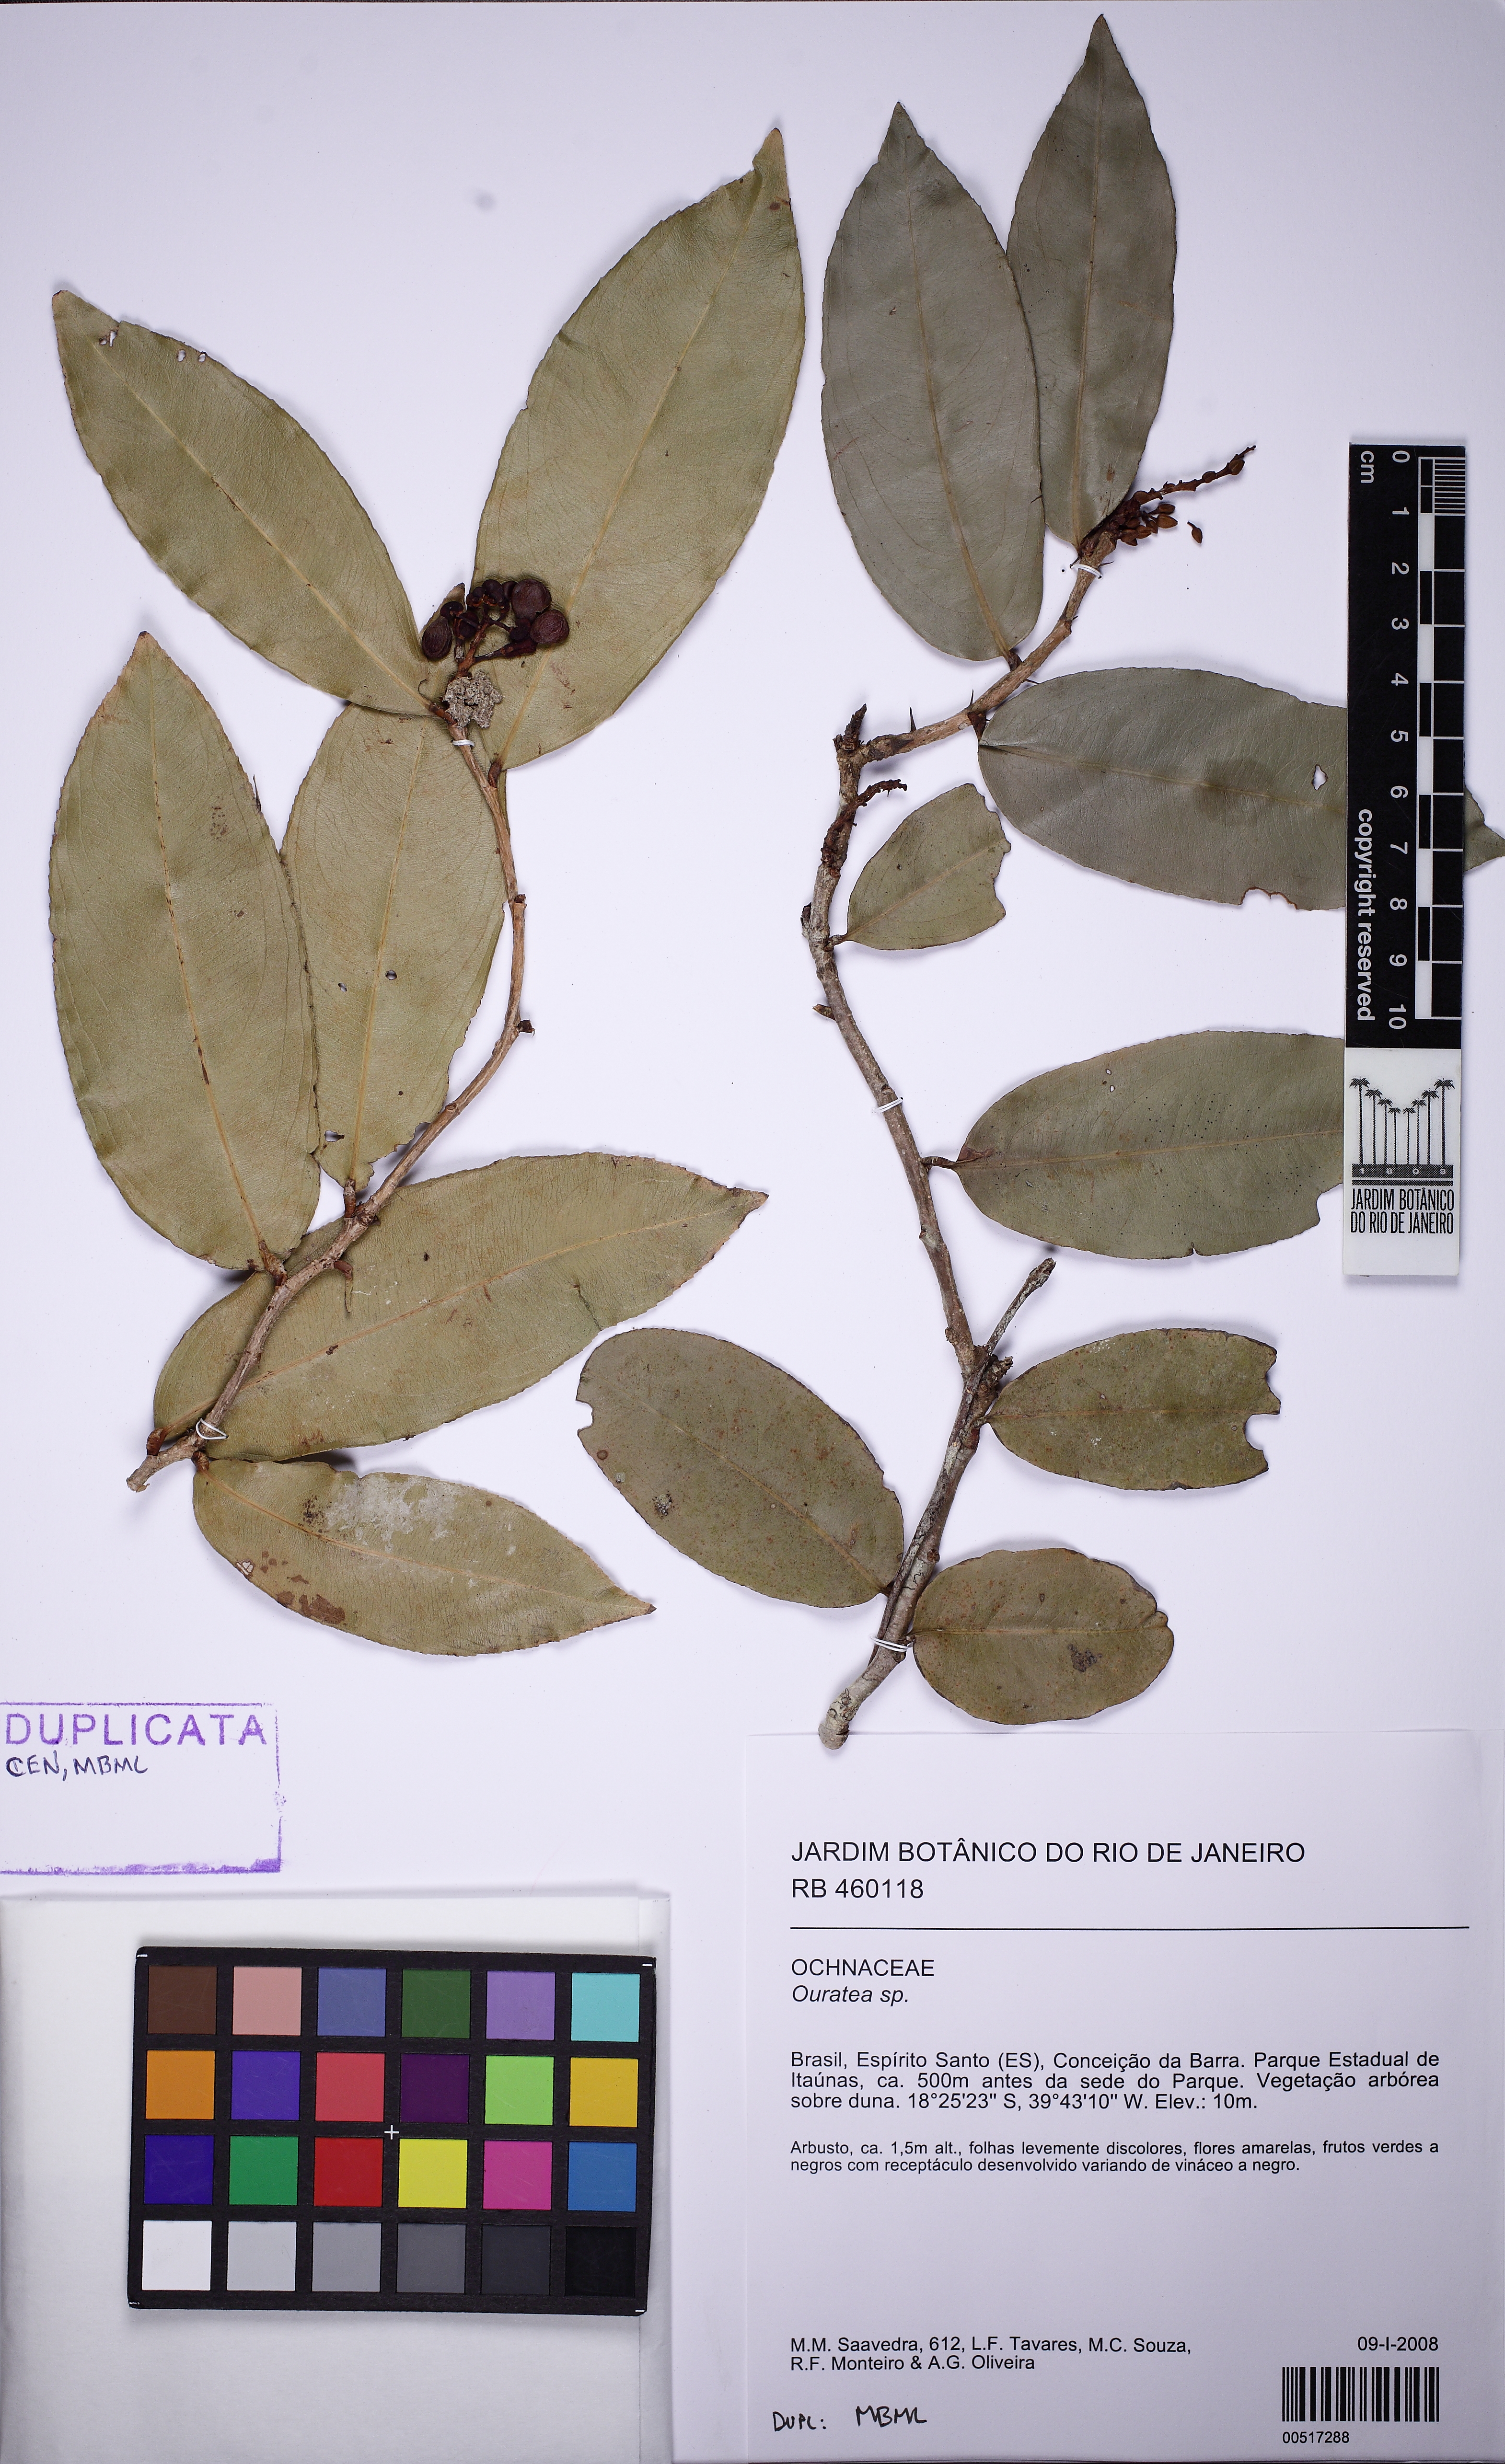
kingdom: Plantae
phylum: Tracheophyta
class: Magnoliopsida
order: Malpighiales
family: Ochnaceae
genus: Ouratea
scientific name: Ouratea
